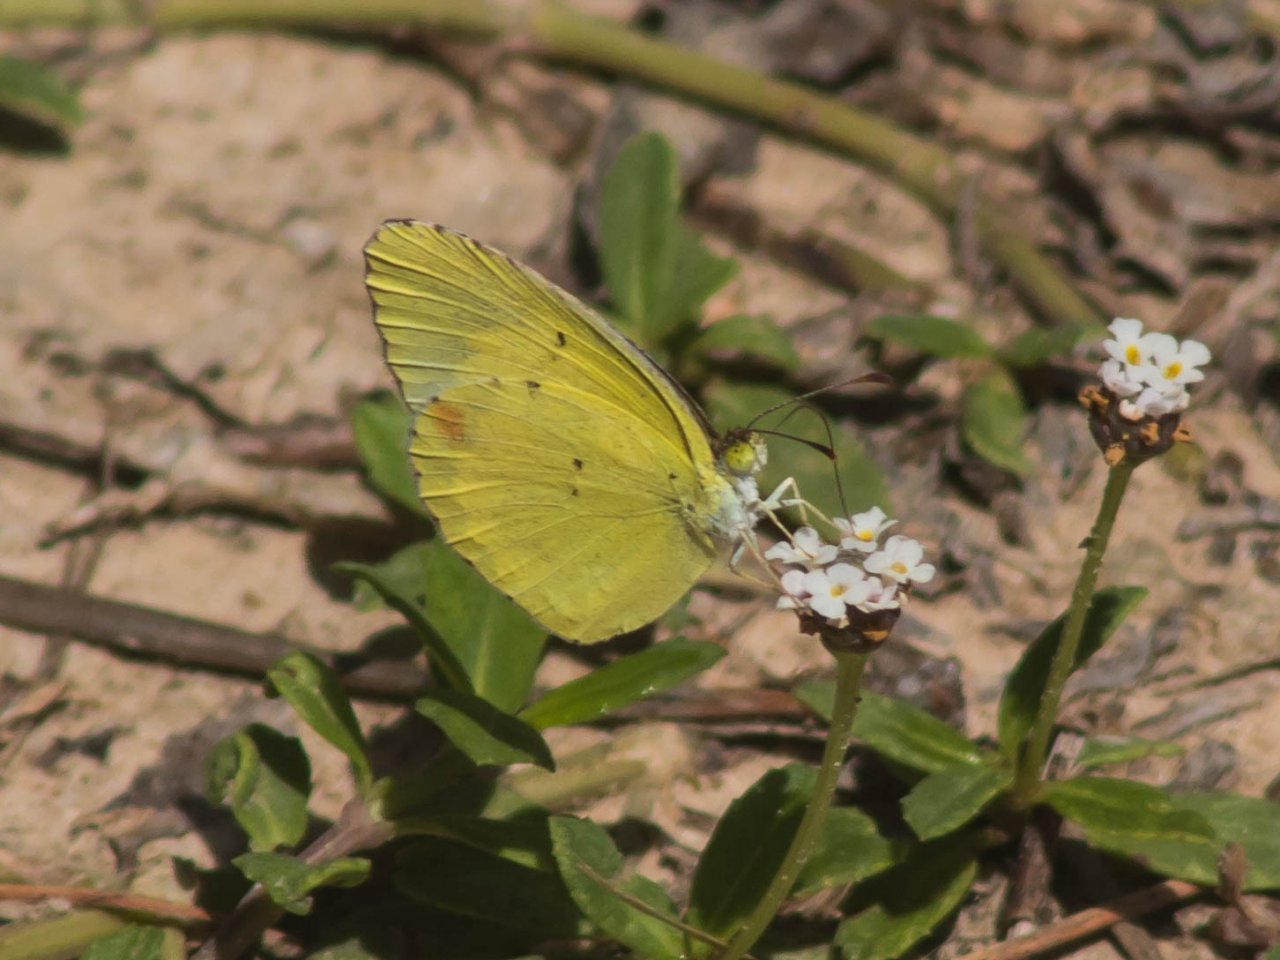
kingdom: Animalia
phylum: Arthropoda
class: Insecta
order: Lepidoptera
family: Pieridae
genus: Pyrisitia
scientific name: Pyrisitia lisa
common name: Little Yellow
